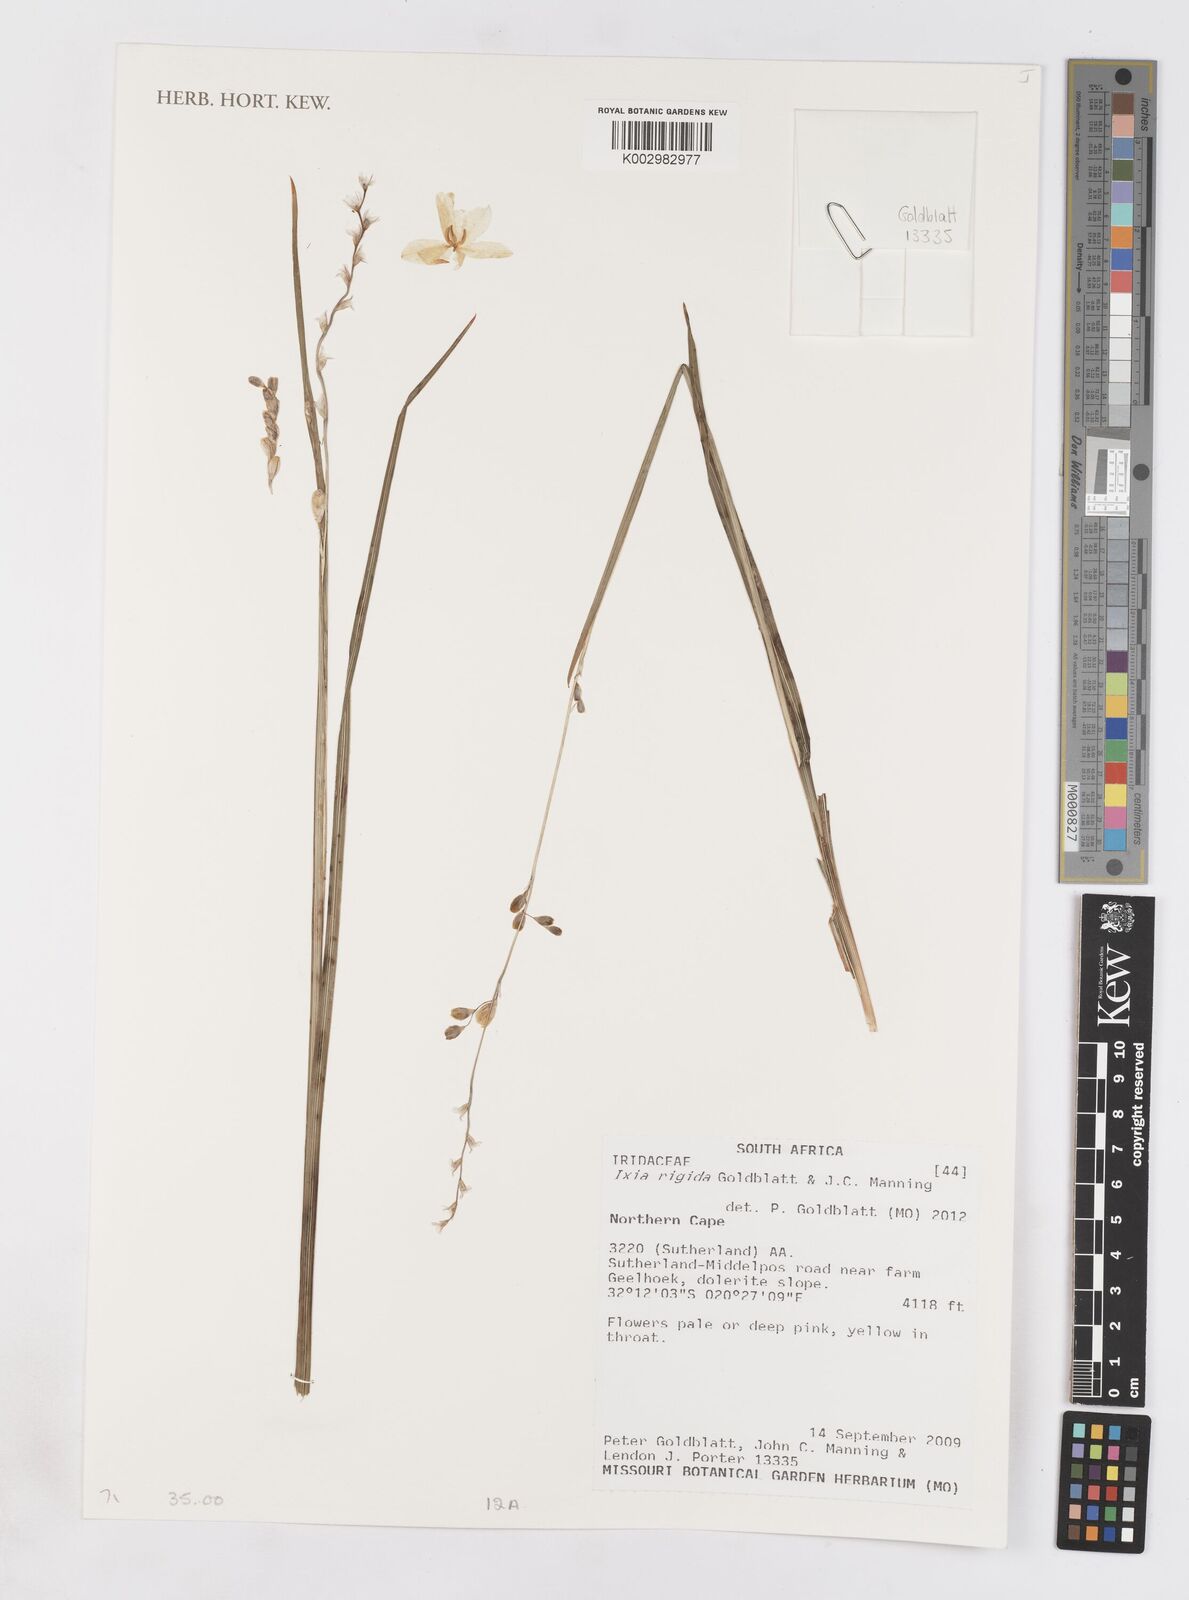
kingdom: Plantae
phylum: Tracheophyta
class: Liliopsida
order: Asparagales
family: Iridaceae
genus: Ixia
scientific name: Ixia rigida
